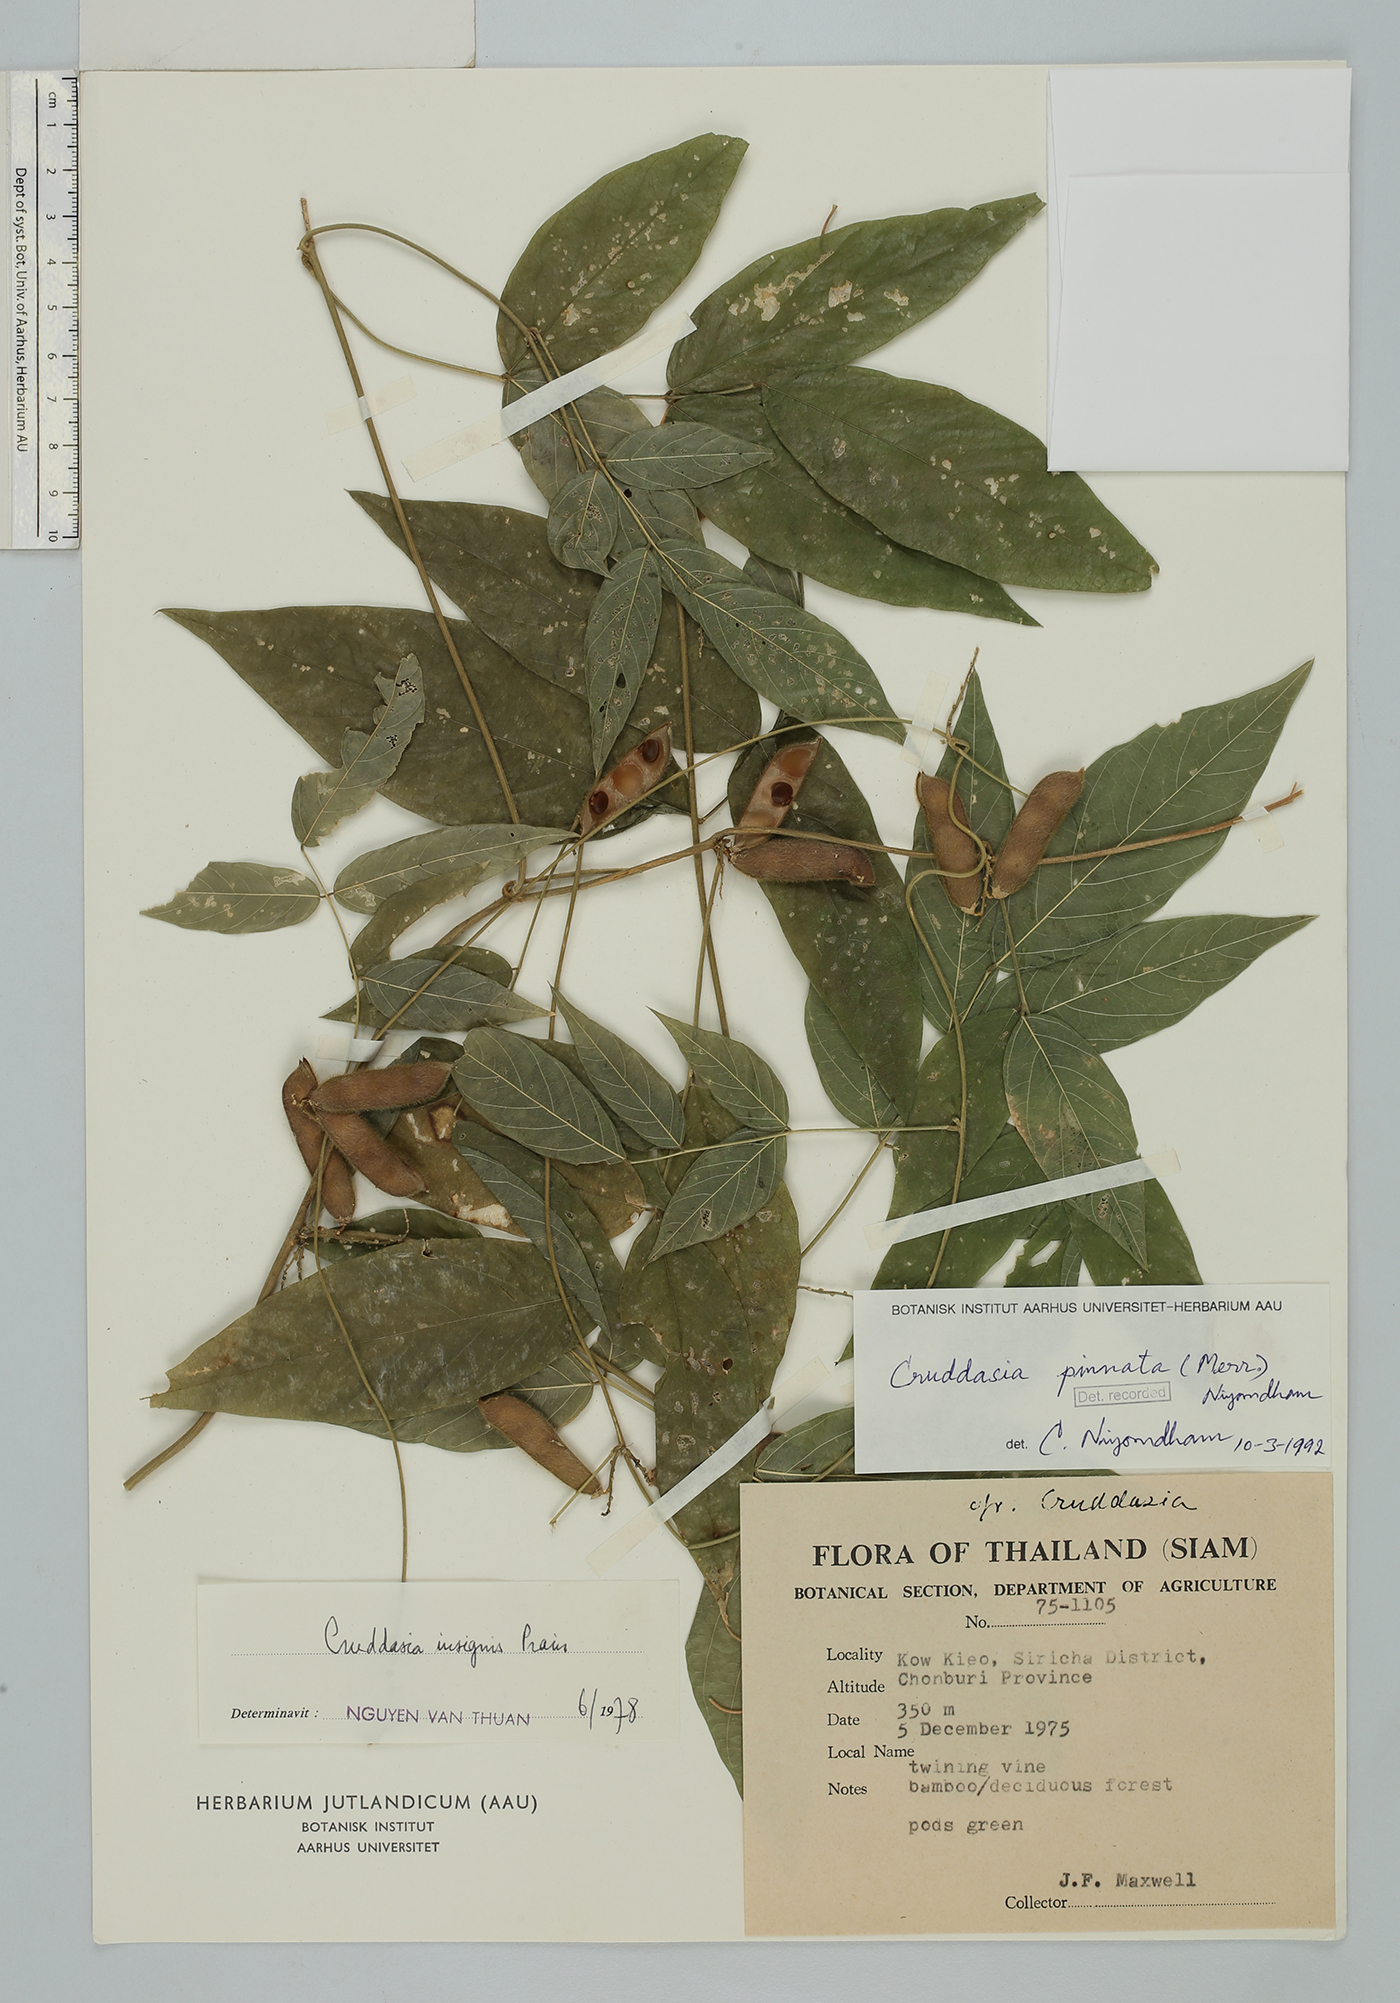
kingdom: Plantae
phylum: Tracheophyta
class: Magnoliopsida
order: Fabales
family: Fabaceae
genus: Cruddasia
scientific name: Cruddasia pinnata
